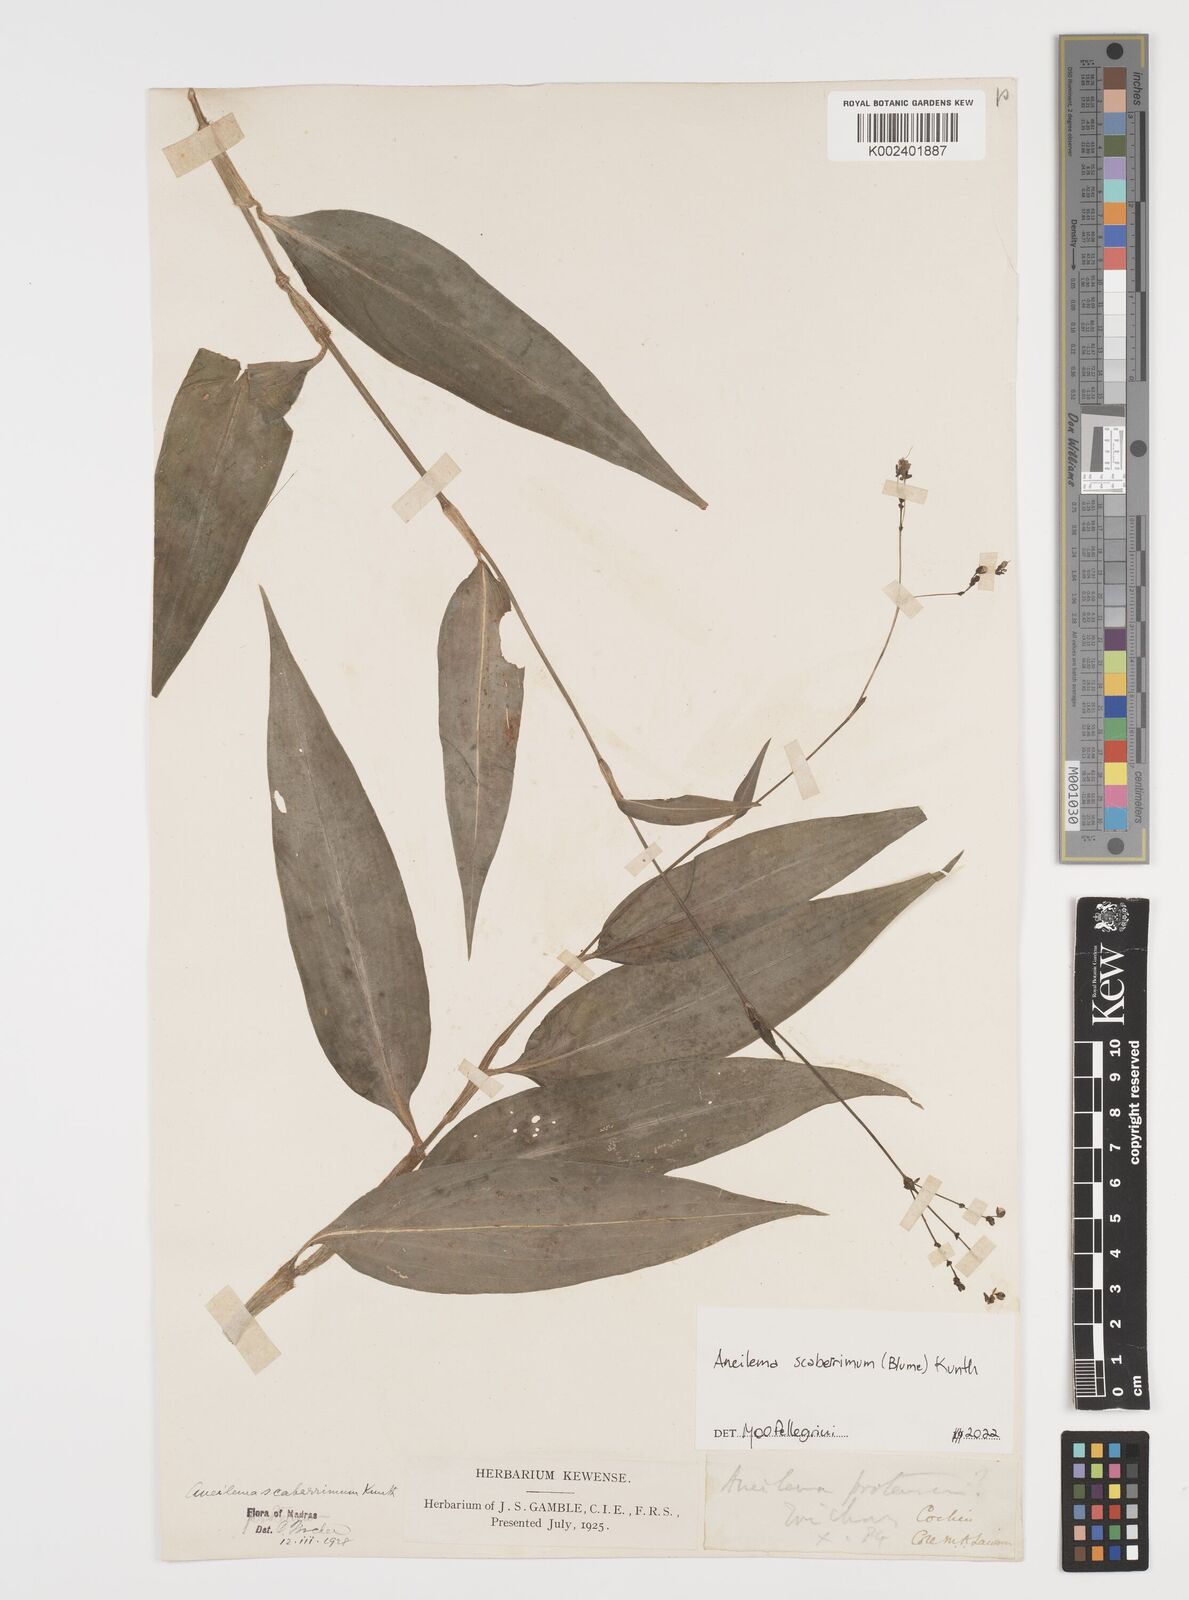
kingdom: Plantae
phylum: Tracheophyta
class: Liliopsida
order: Commelinales
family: Commelinaceae
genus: Rhopalephora
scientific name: Rhopalephora scaberrima
